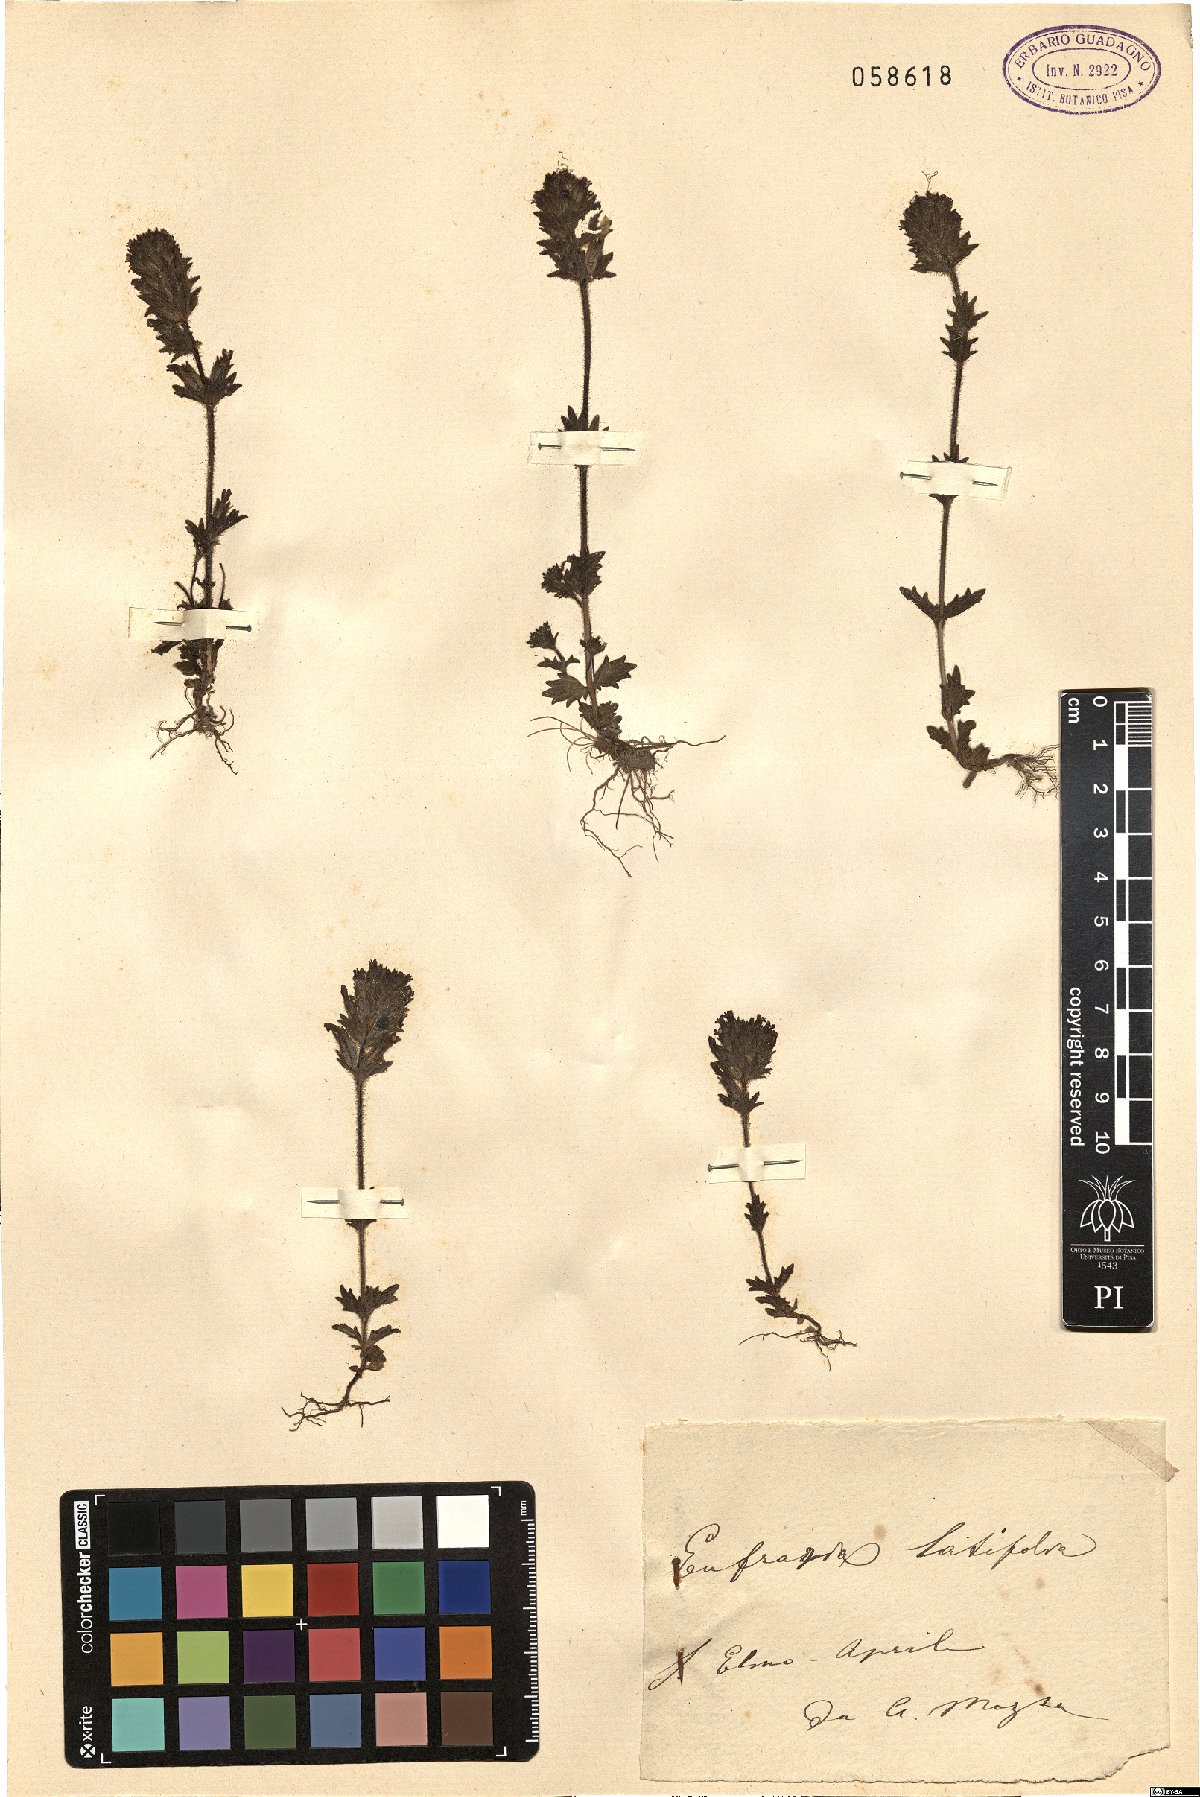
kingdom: Plantae
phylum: Tracheophyta
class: Magnoliopsida
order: Lamiales
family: Orobanchaceae
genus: Parentucellia
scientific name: Parentucellia latifolia
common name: Broadleaf glandweed
